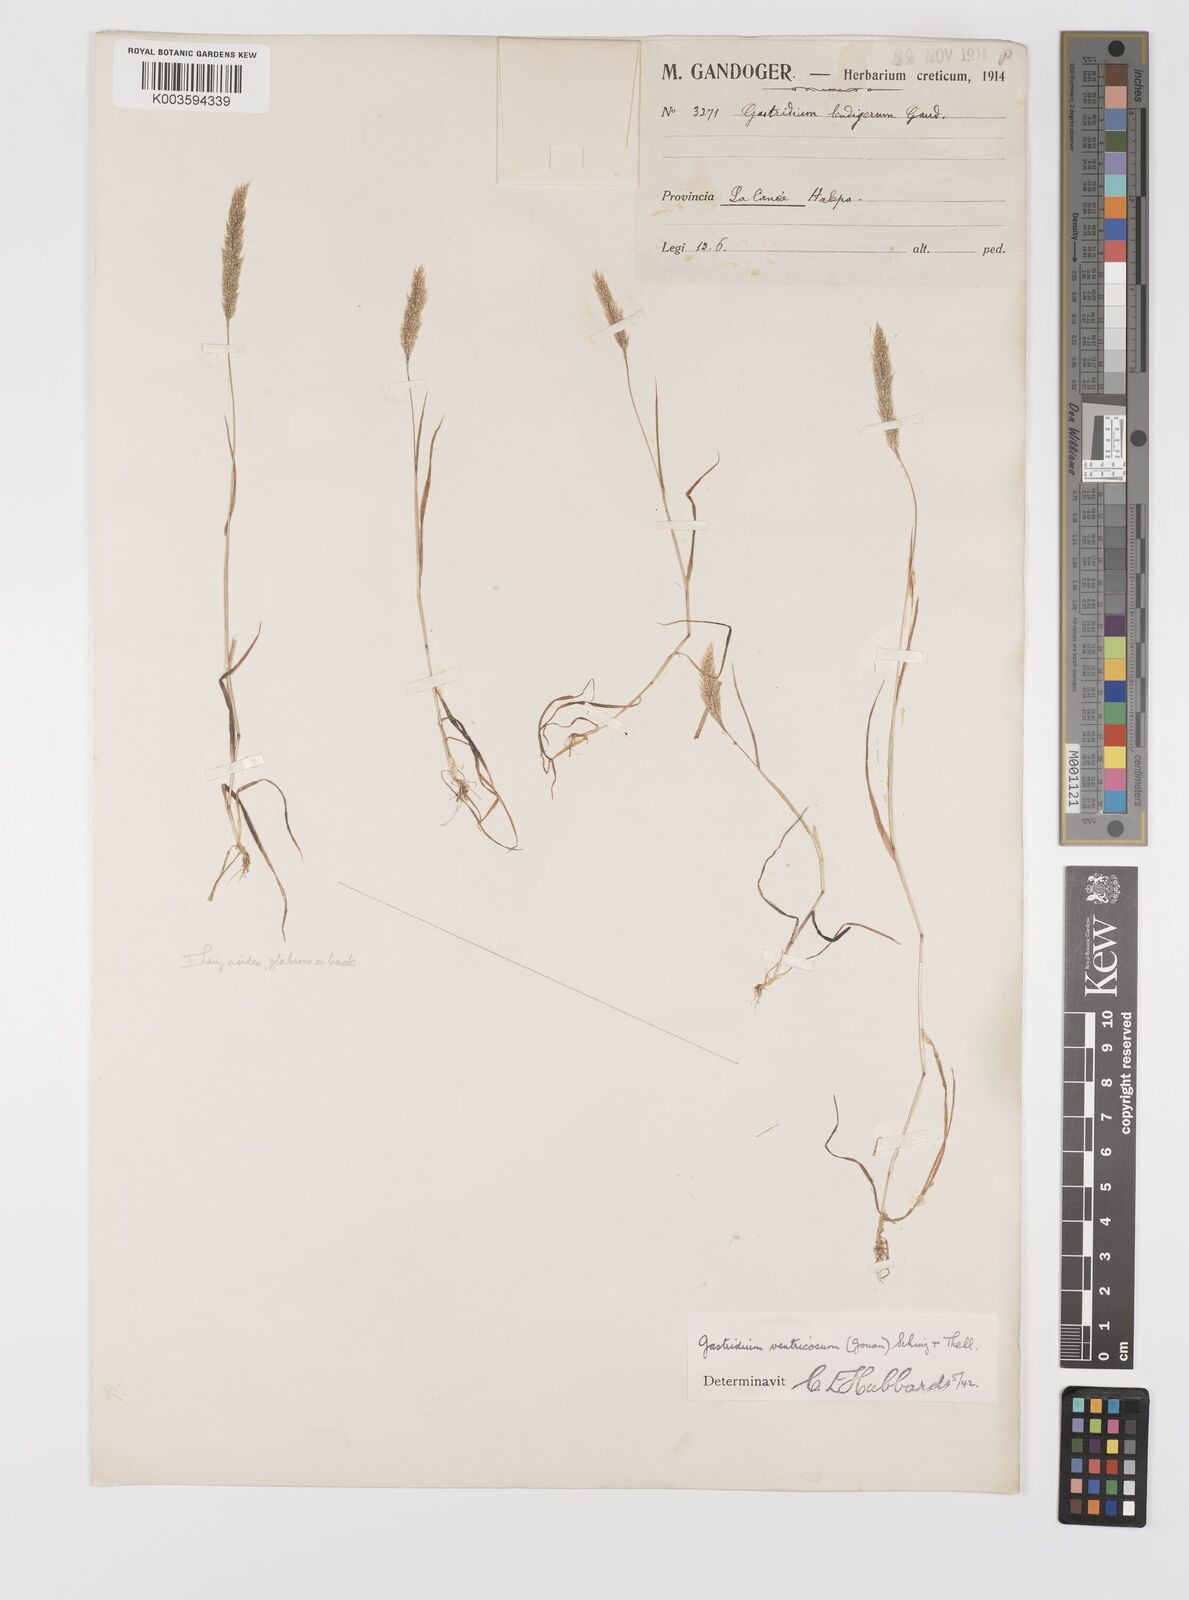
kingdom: Plantae
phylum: Tracheophyta
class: Liliopsida
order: Poales
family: Poaceae
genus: Gastridium
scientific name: Gastridium ventricosum
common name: Nit-grass
